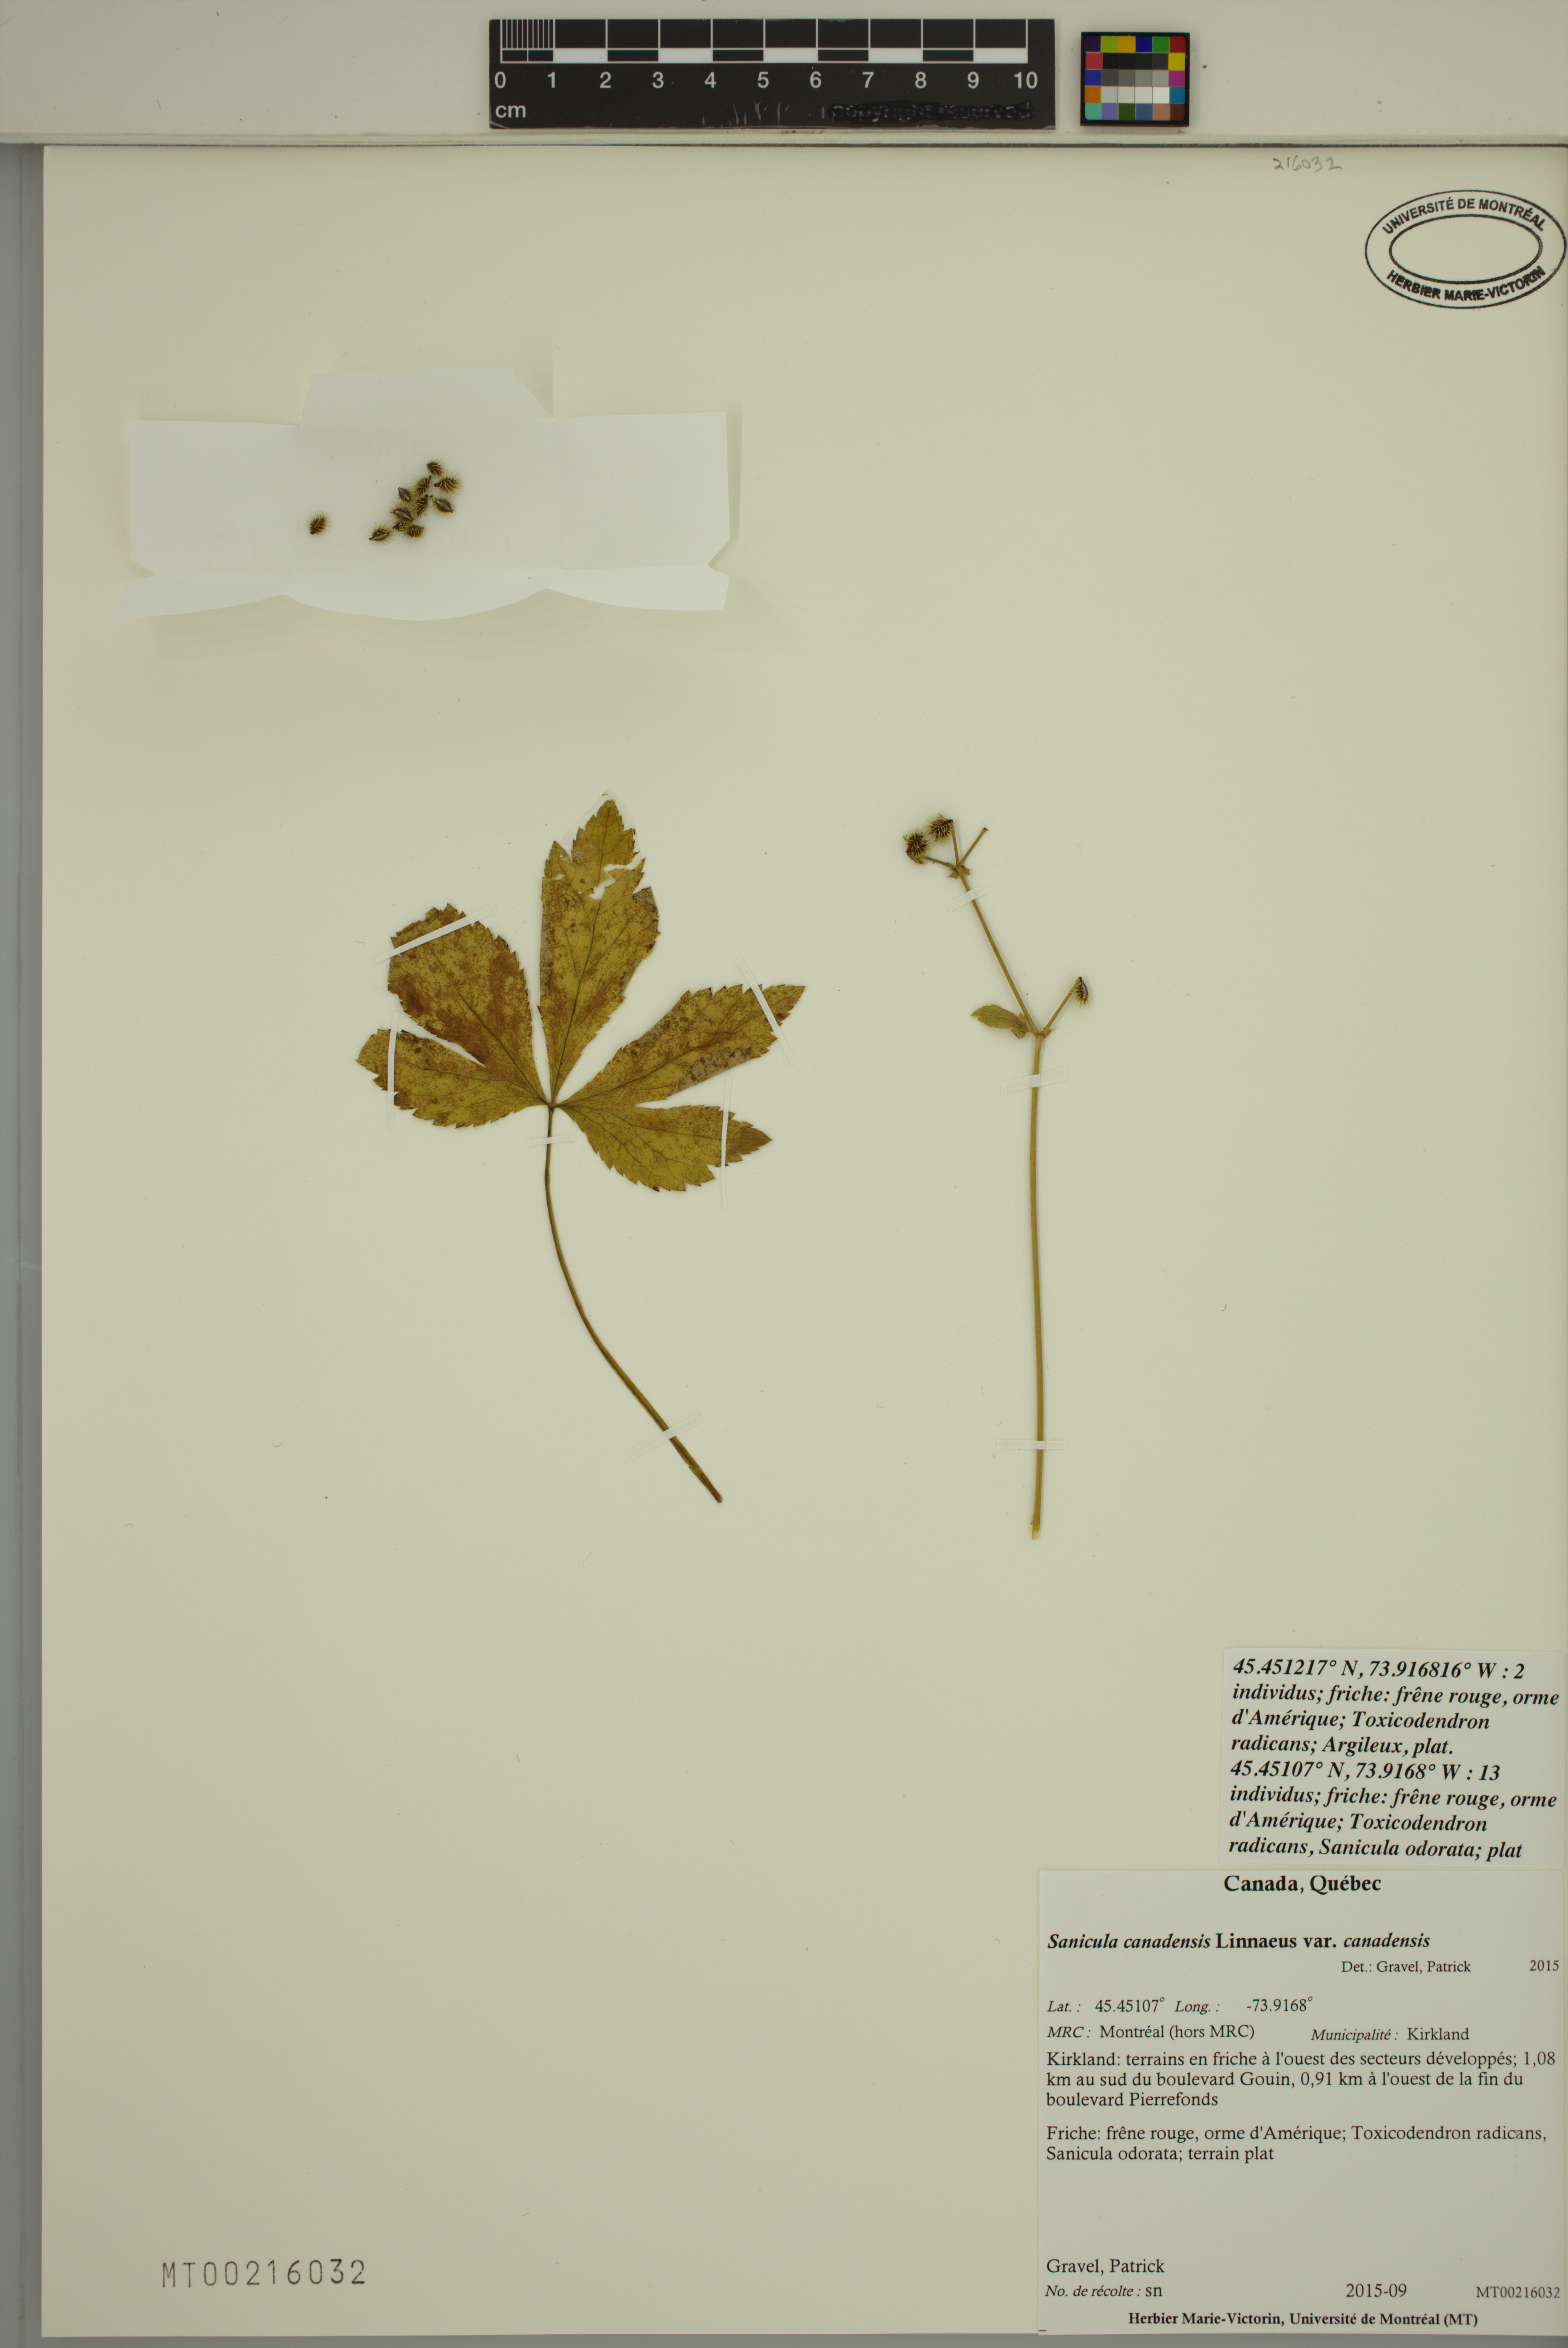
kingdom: Plantae
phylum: Tracheophyta
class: Magnoliopsida
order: Apiales
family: Apiaceae
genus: Sanicula
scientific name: Sanicula canadensis
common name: Canada sanicle
